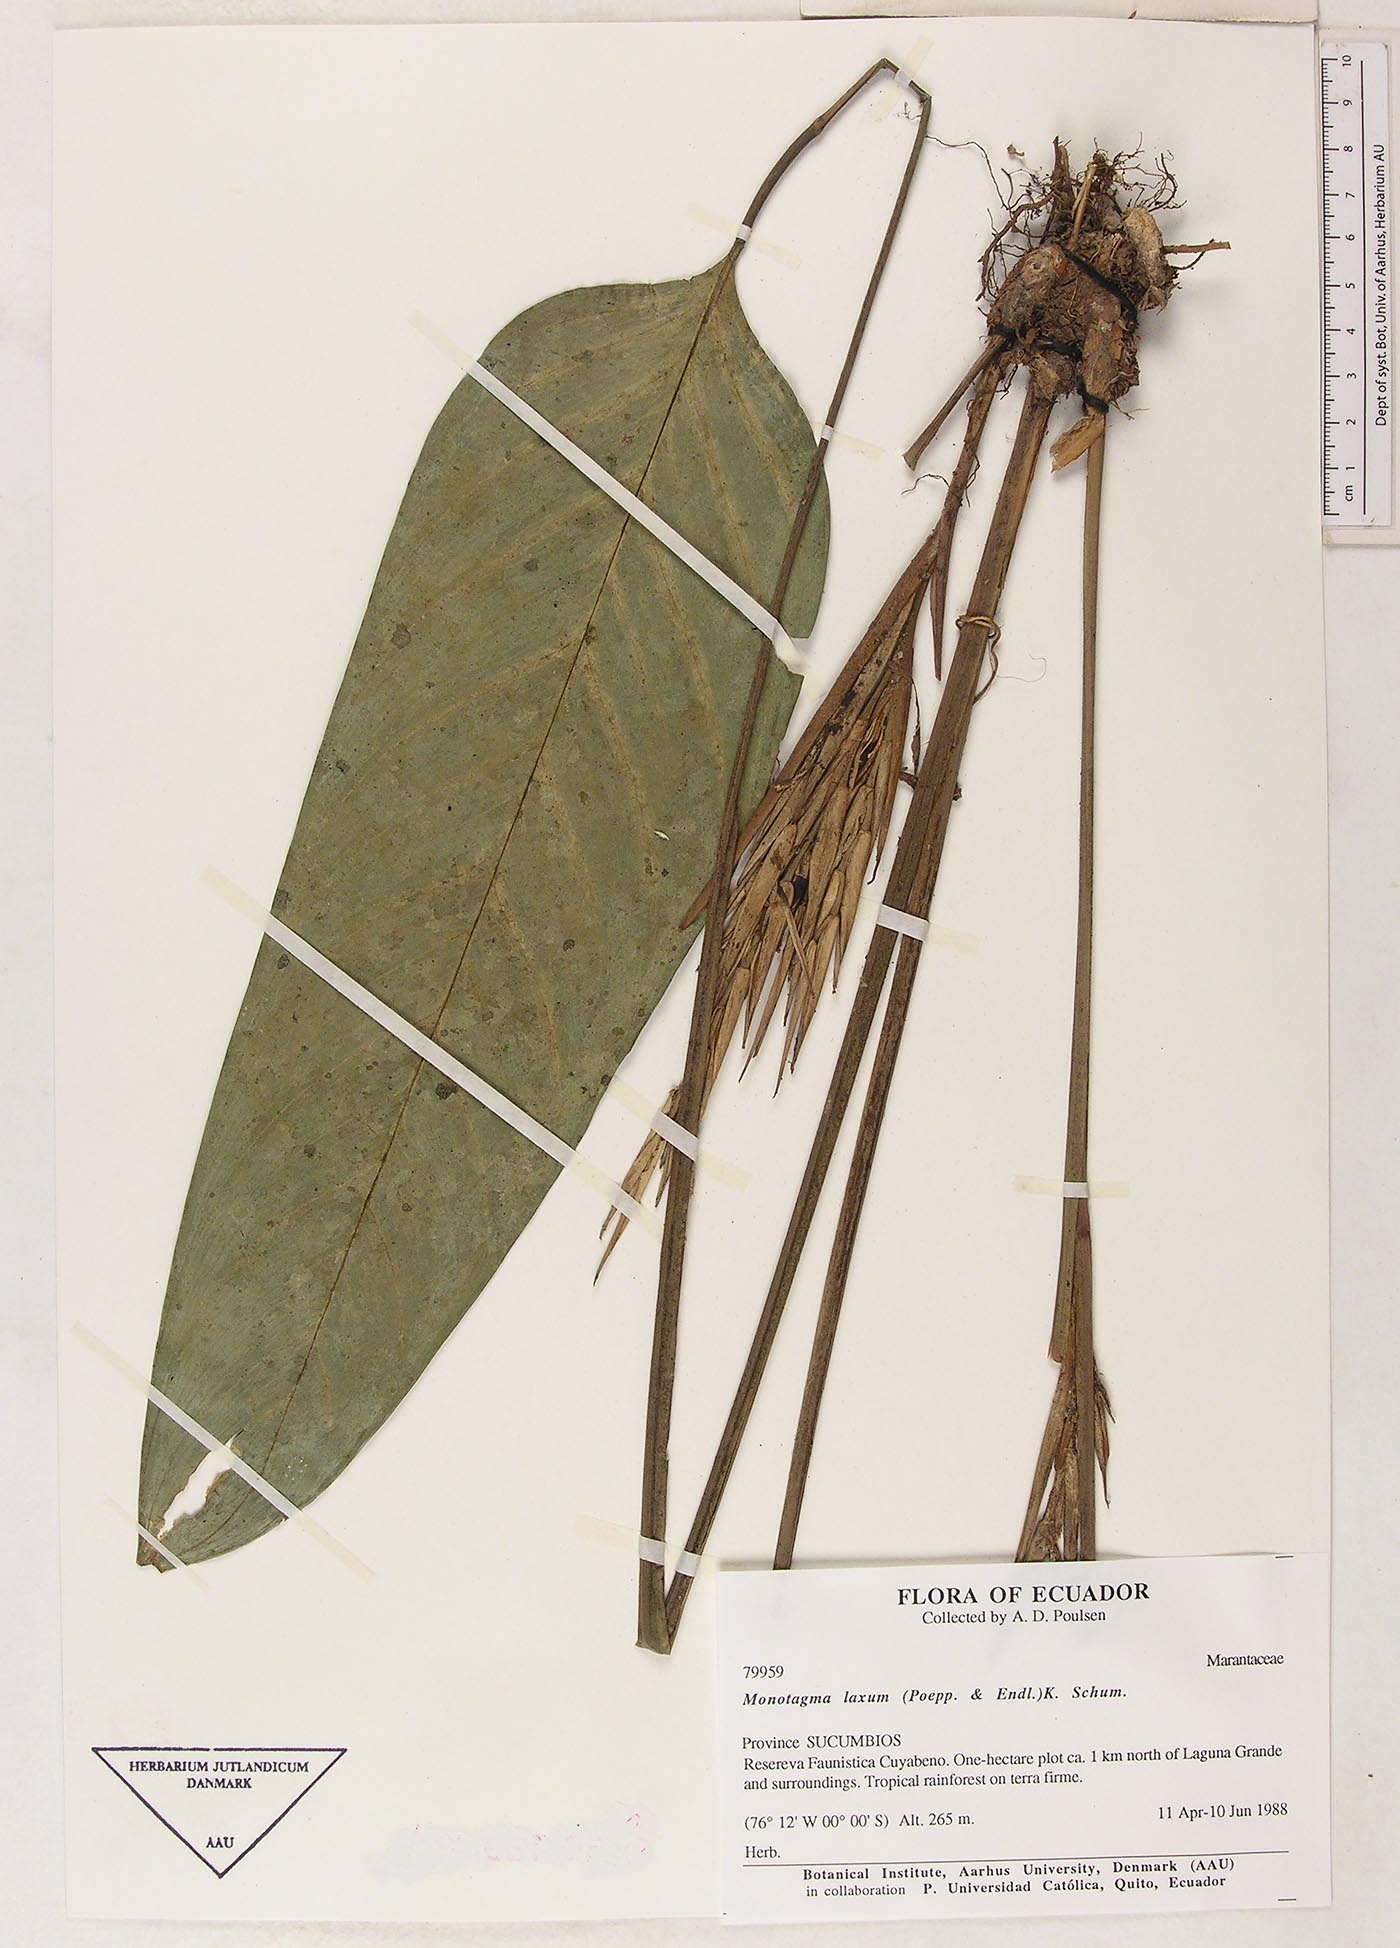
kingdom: Plantae
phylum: Tracheophyta
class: Liliopsida
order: Zingiberales
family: Marantaceae
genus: Monotagma
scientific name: Monotagma laxum
